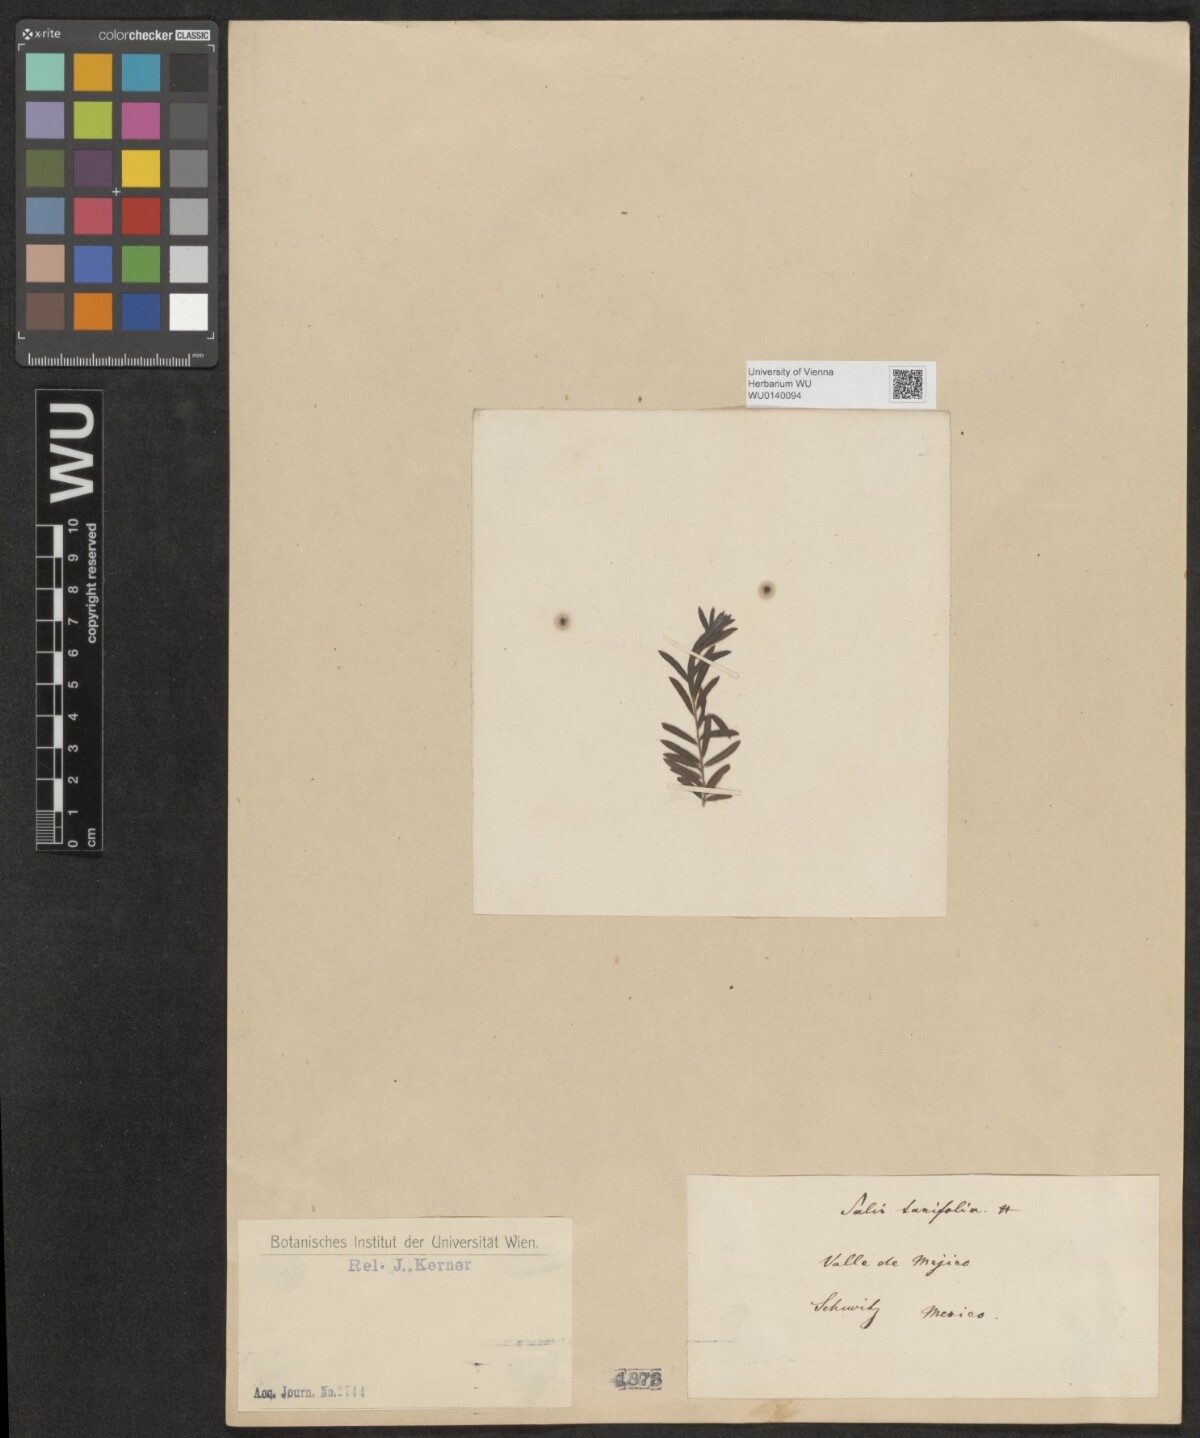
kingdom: Plantae
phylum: Tracheophyta
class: Magnoliopsida
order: Malpighiales
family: Salicaceae
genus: Salix
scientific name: Salix taxifolia
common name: Yew-leaf willow
